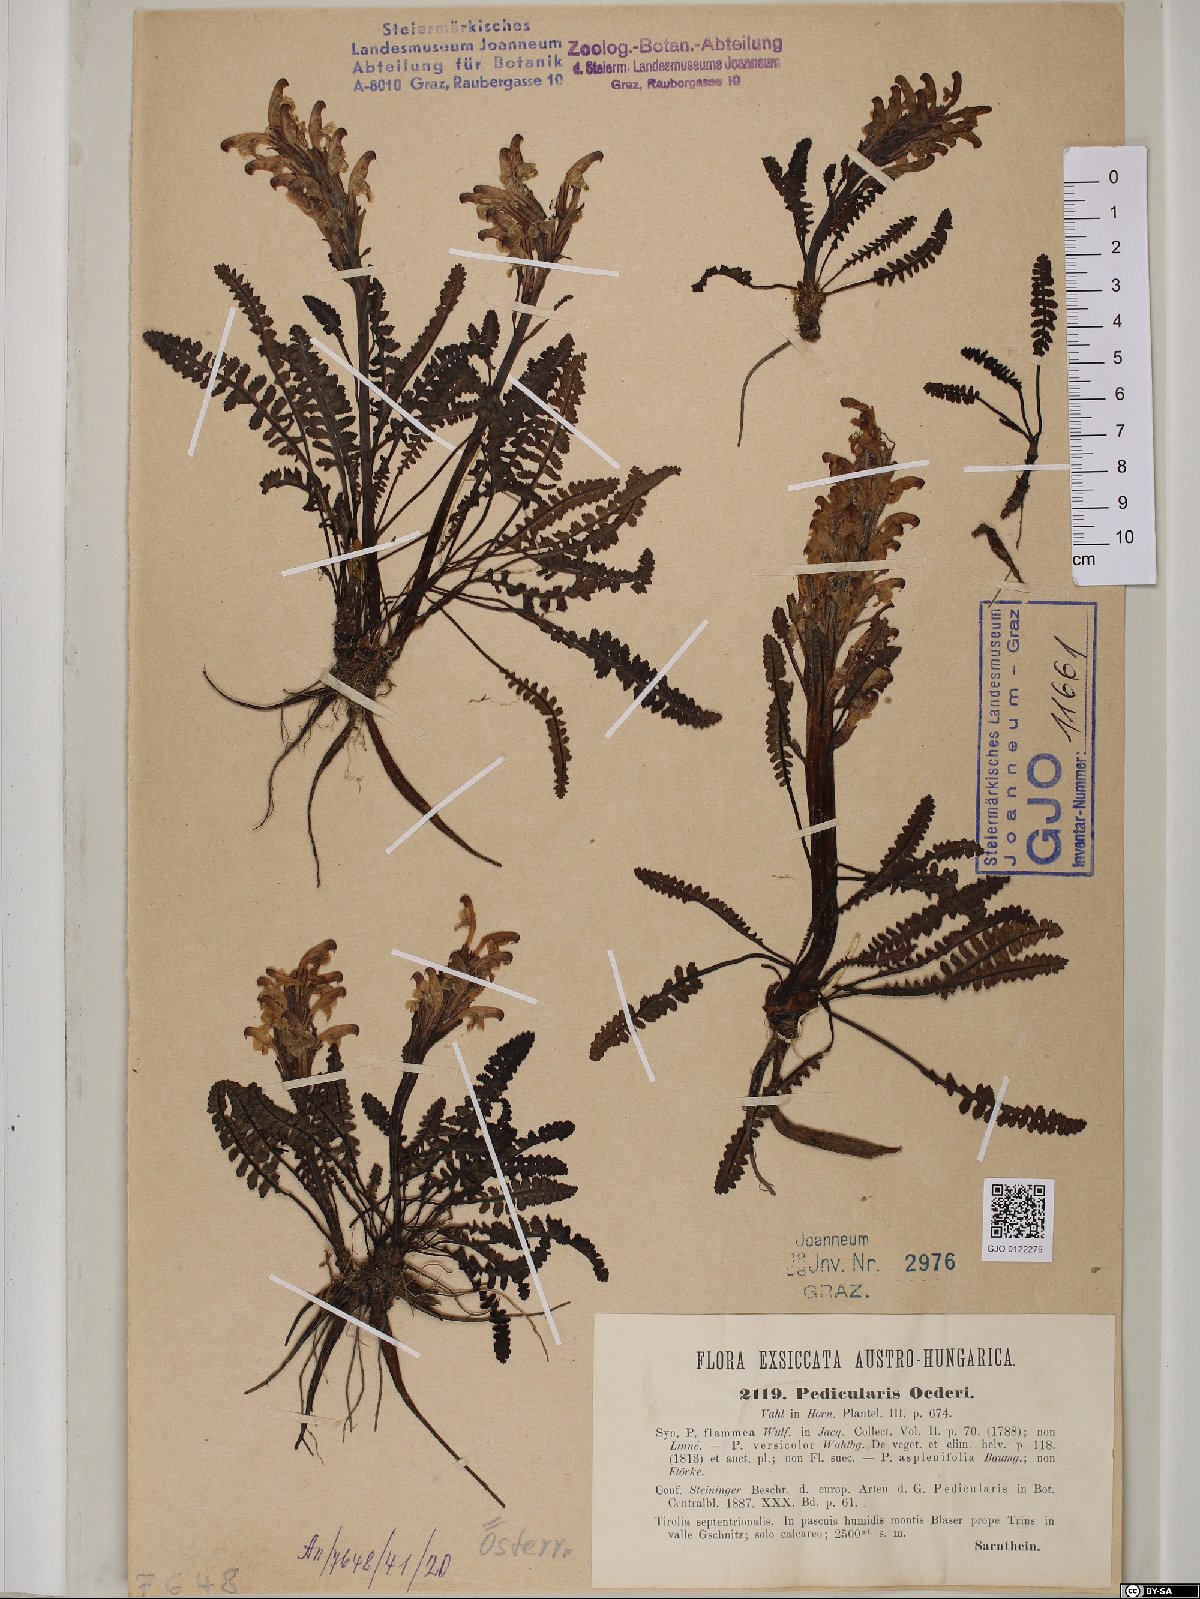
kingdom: Plantae
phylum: Tracheophyta
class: Magnoliopsida
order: Lamiales
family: Orobanchaceae
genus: Pedicularis
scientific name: Pedicularis oederi
